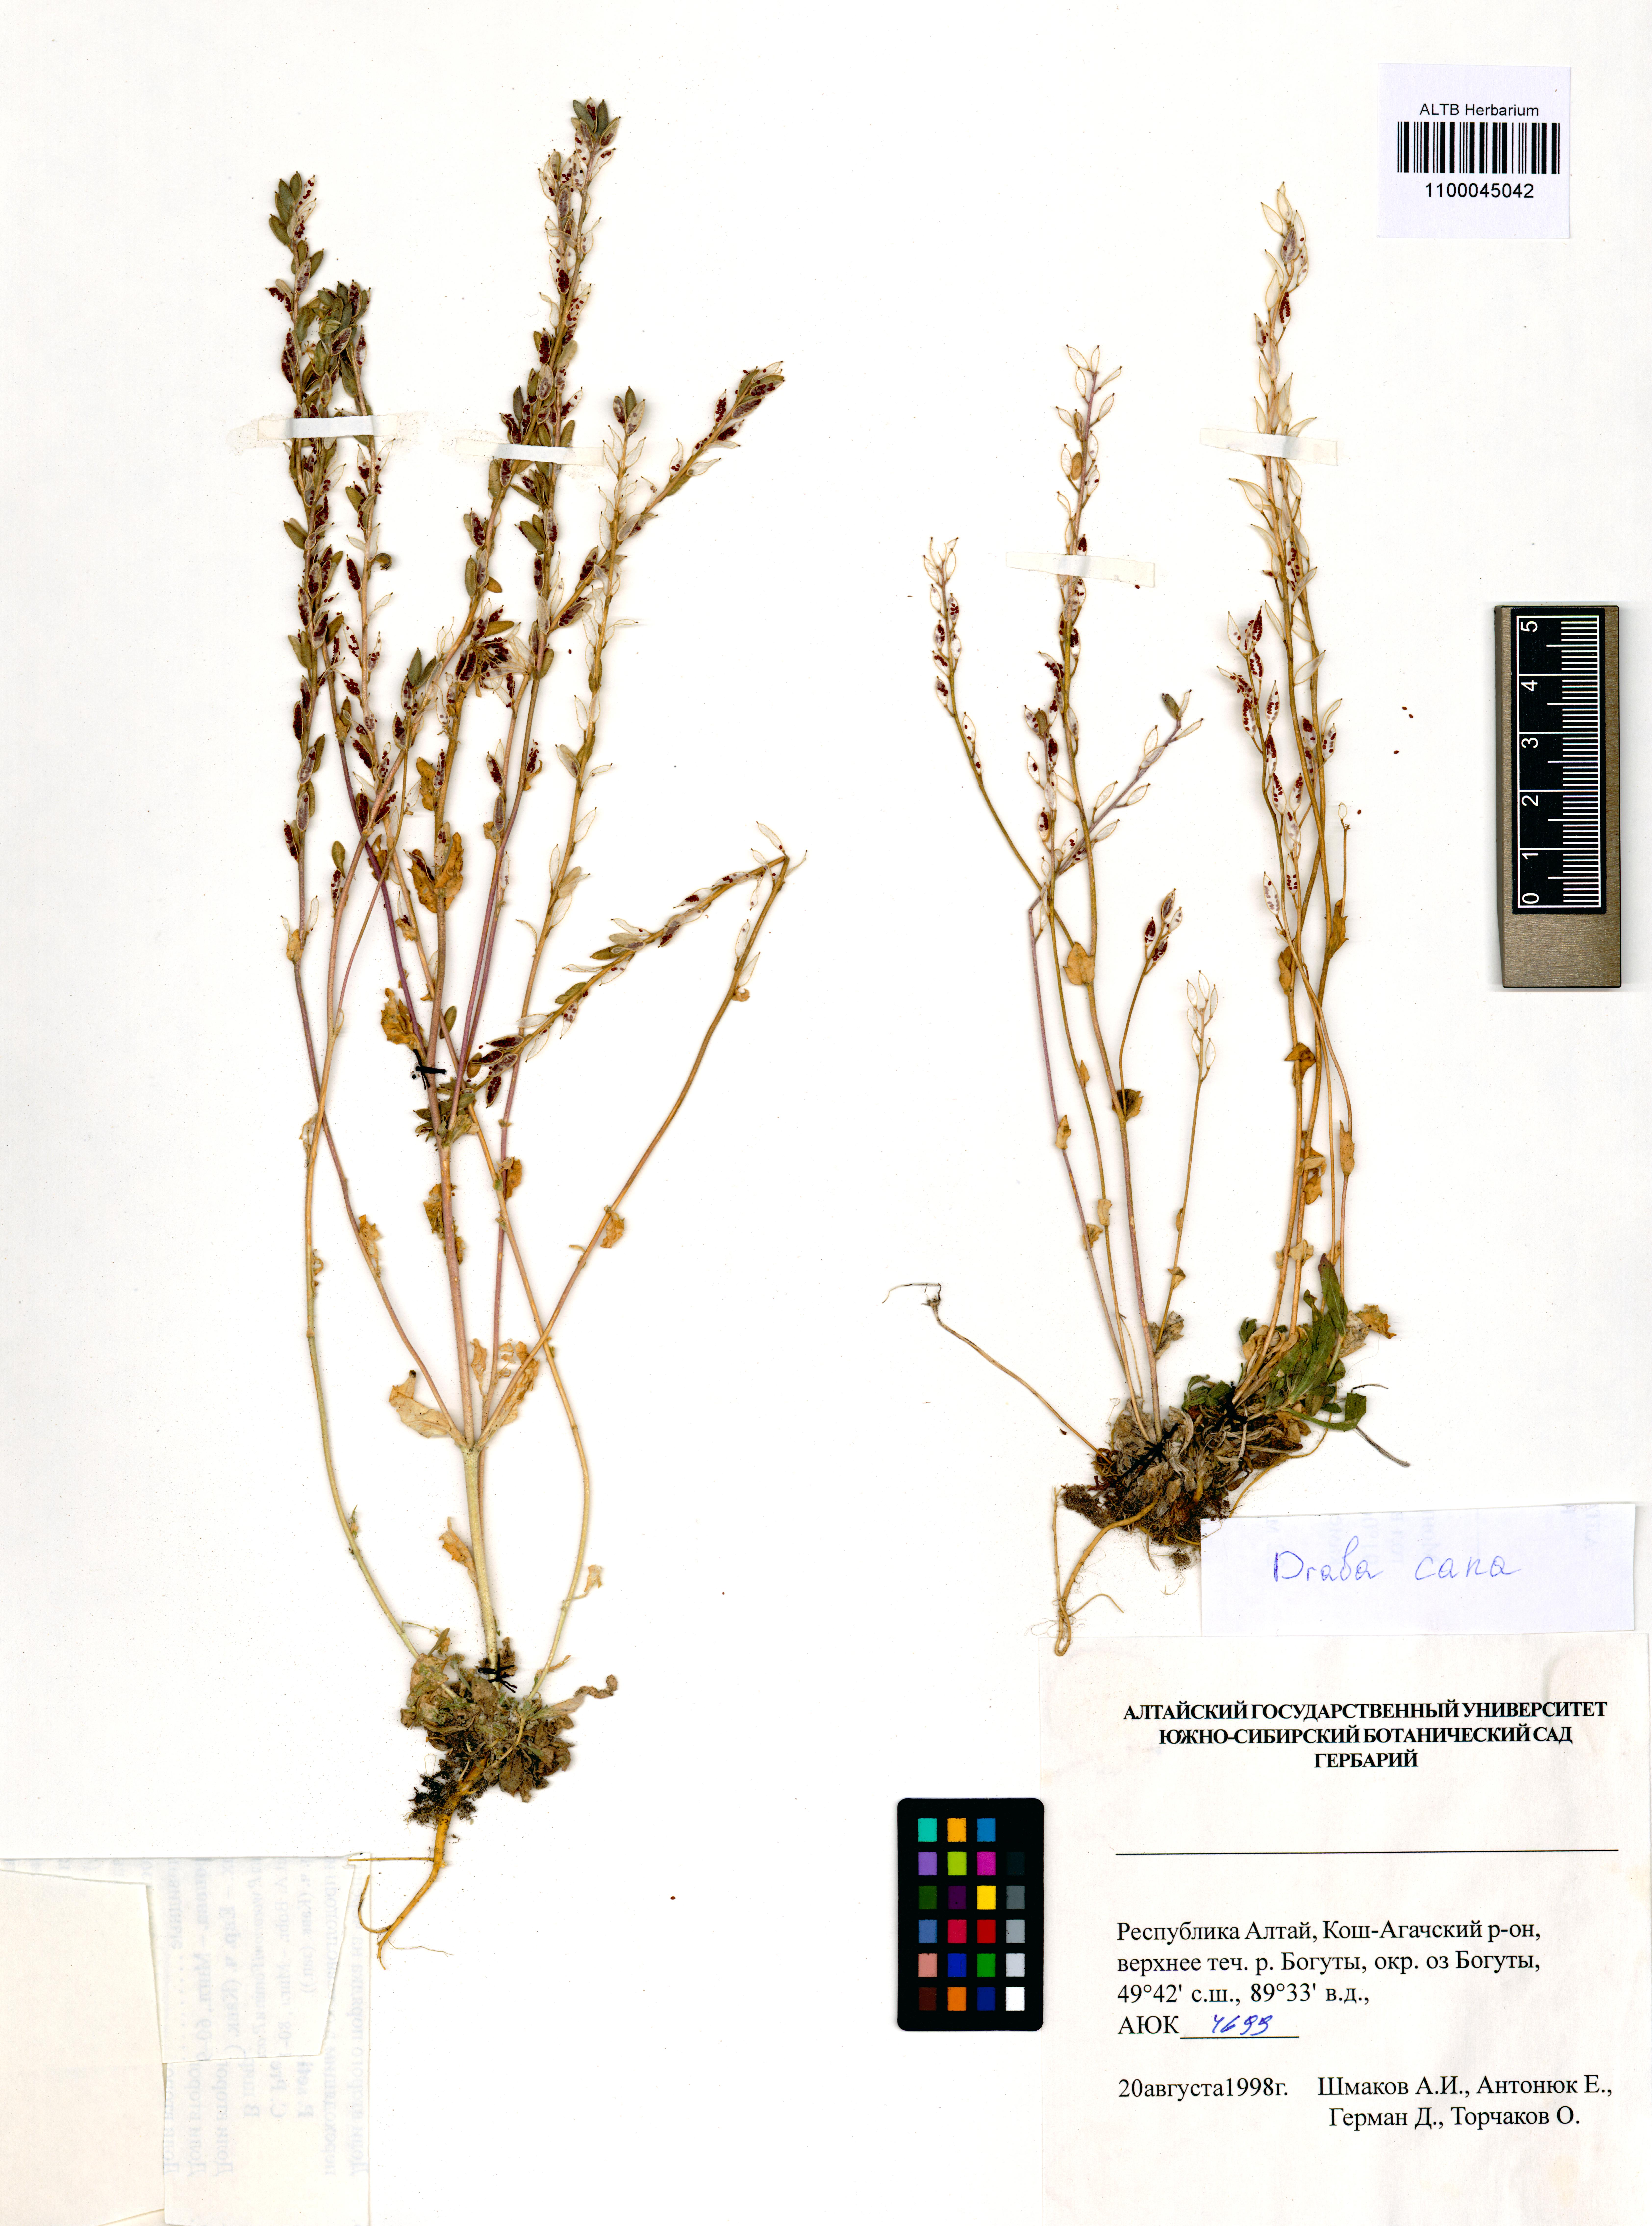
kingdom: Plantae
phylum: Tracheophyta
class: Magnoliopsida
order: Brassicales
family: Brassicaceae
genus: Draba
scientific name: Draba cana
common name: Hoary draba
